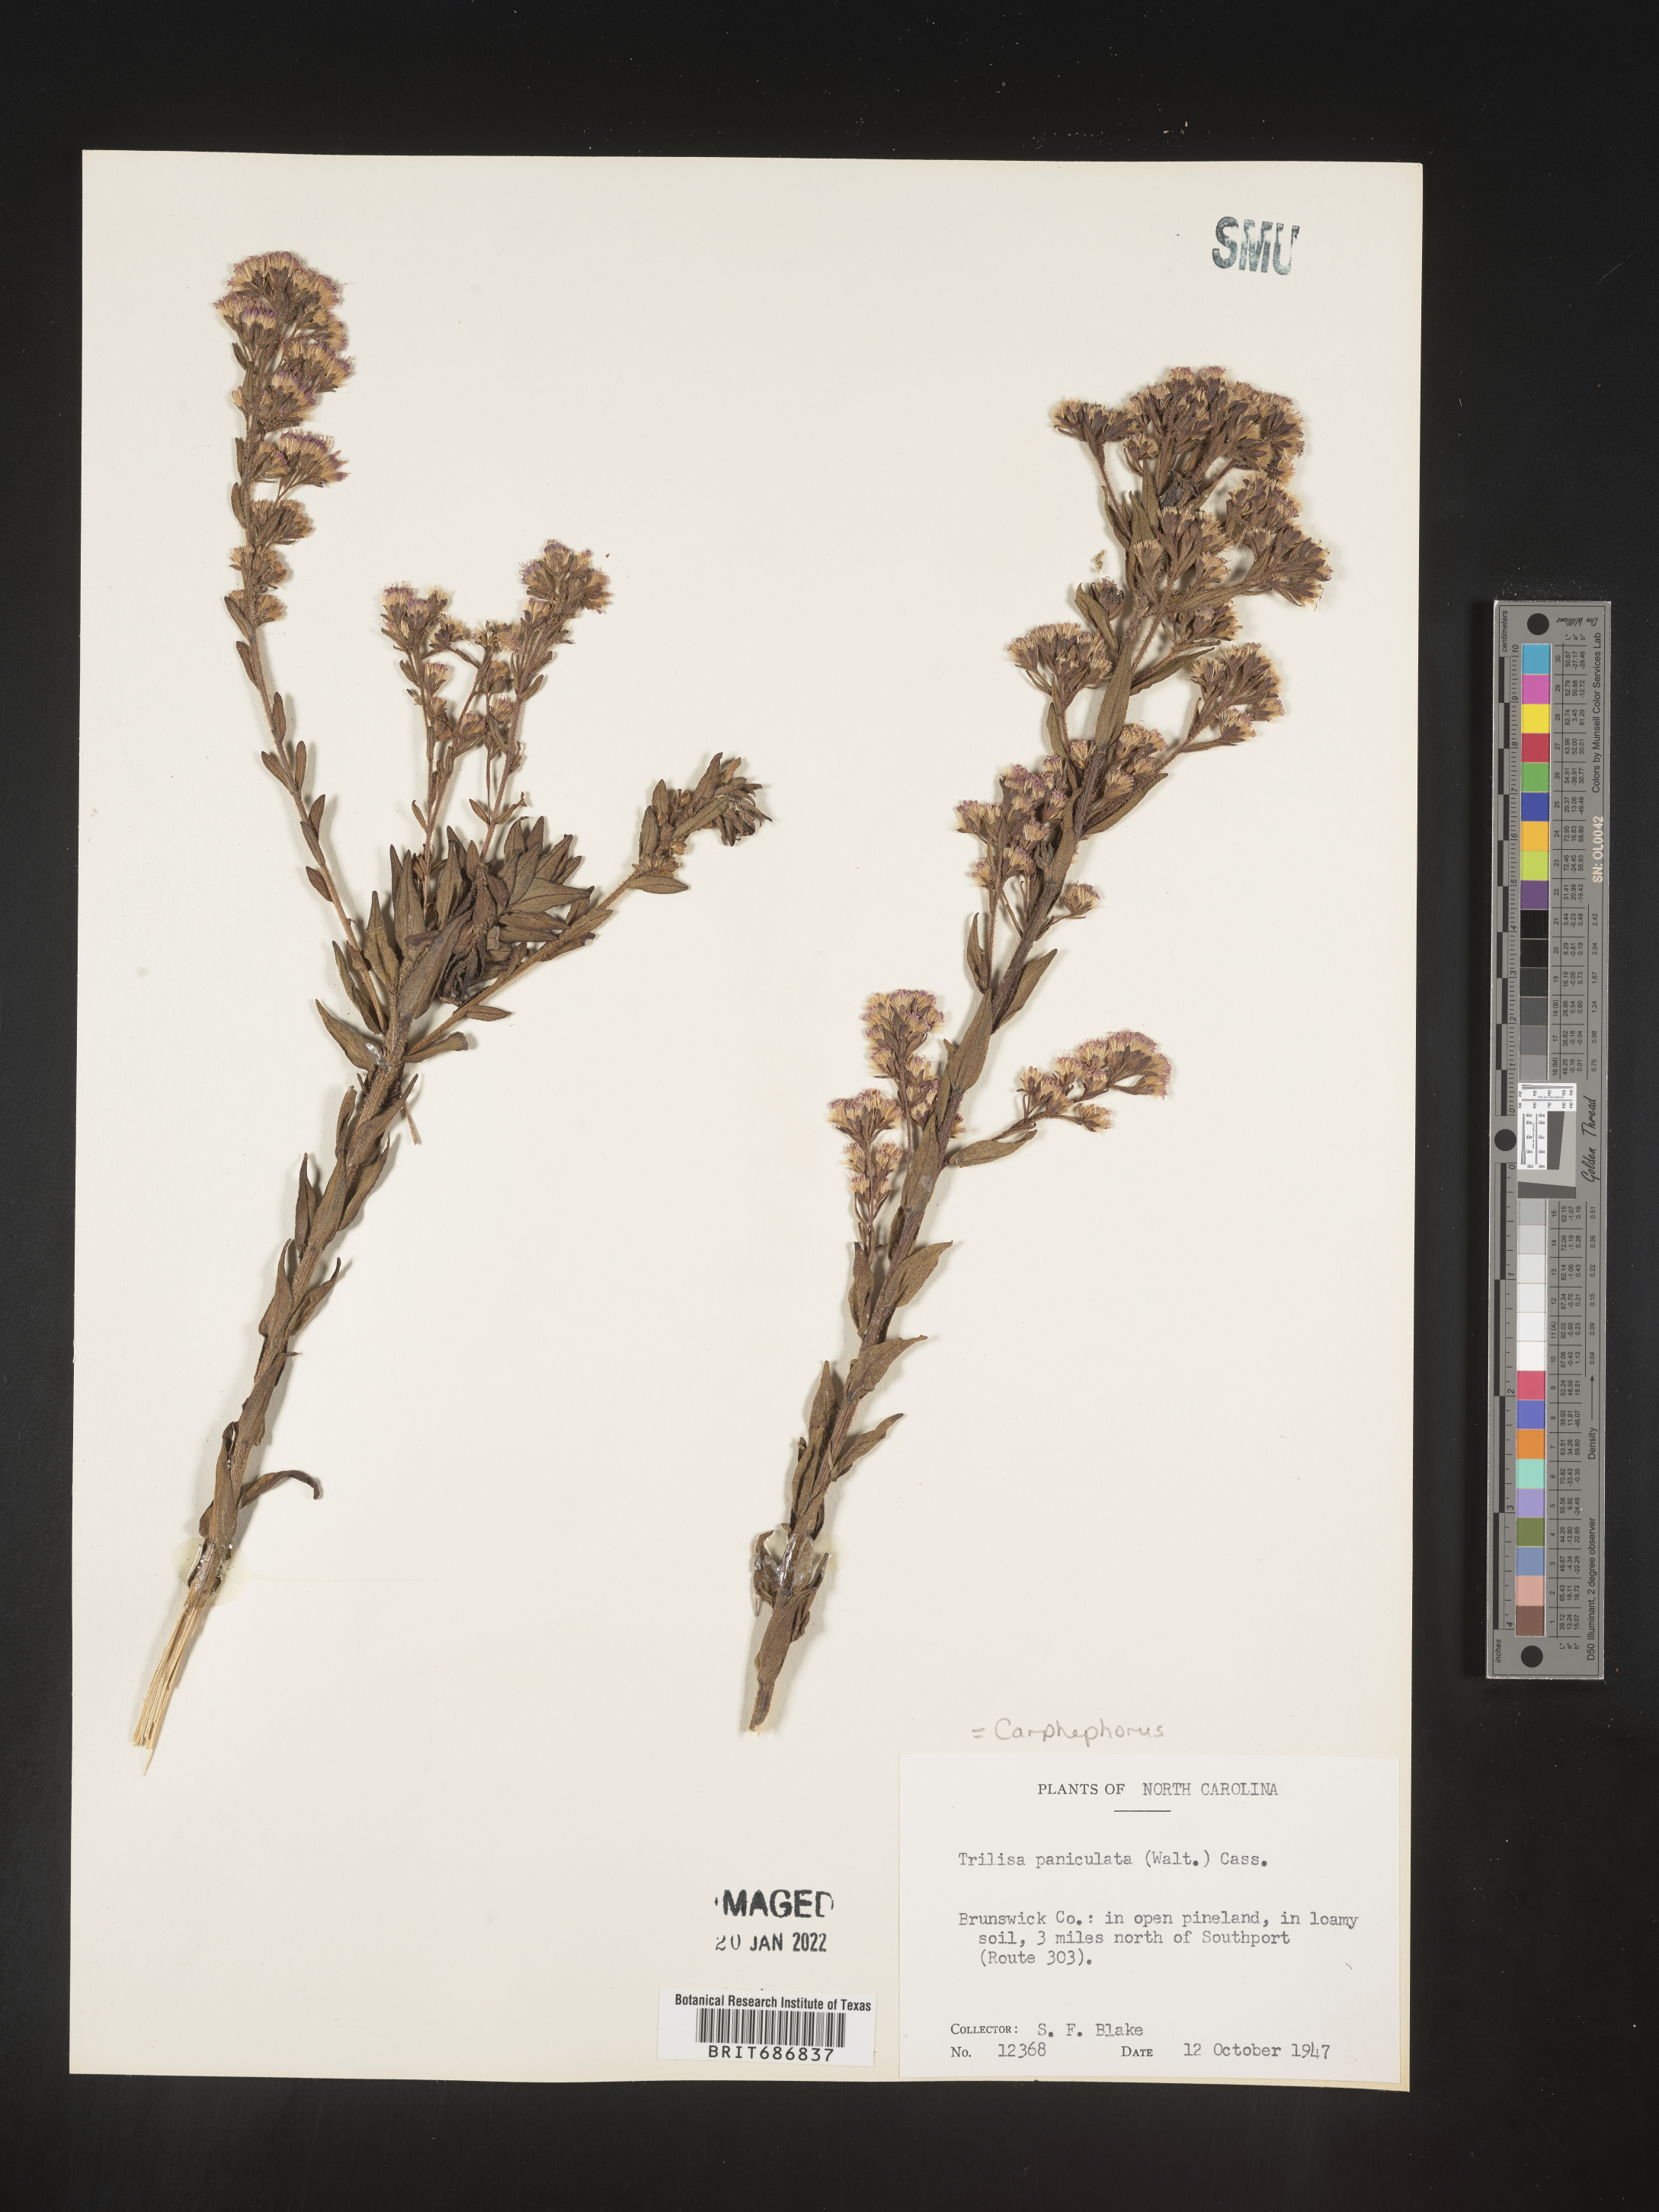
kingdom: Plantae
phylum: Tracheophyta
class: Magnoliopsida
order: Asterales
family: Asteraceae
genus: Carphephorus
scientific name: Carphephorus paniculatus
